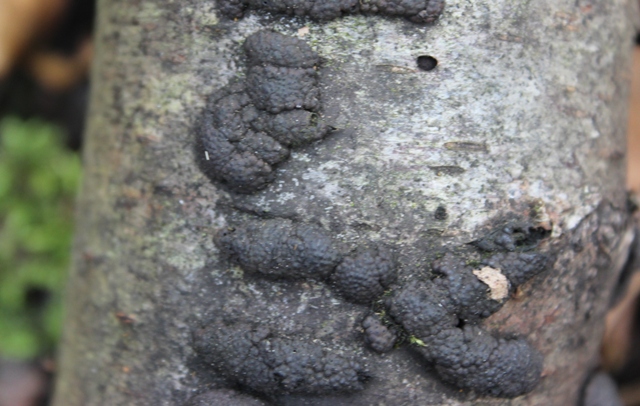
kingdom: Fungi
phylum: Ascomycota
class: Sordariomycetes
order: Xylariales
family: Hypoxylaceae
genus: Jackrogersella
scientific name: Jackrogersella multiformis
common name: foranderlig kulbær
